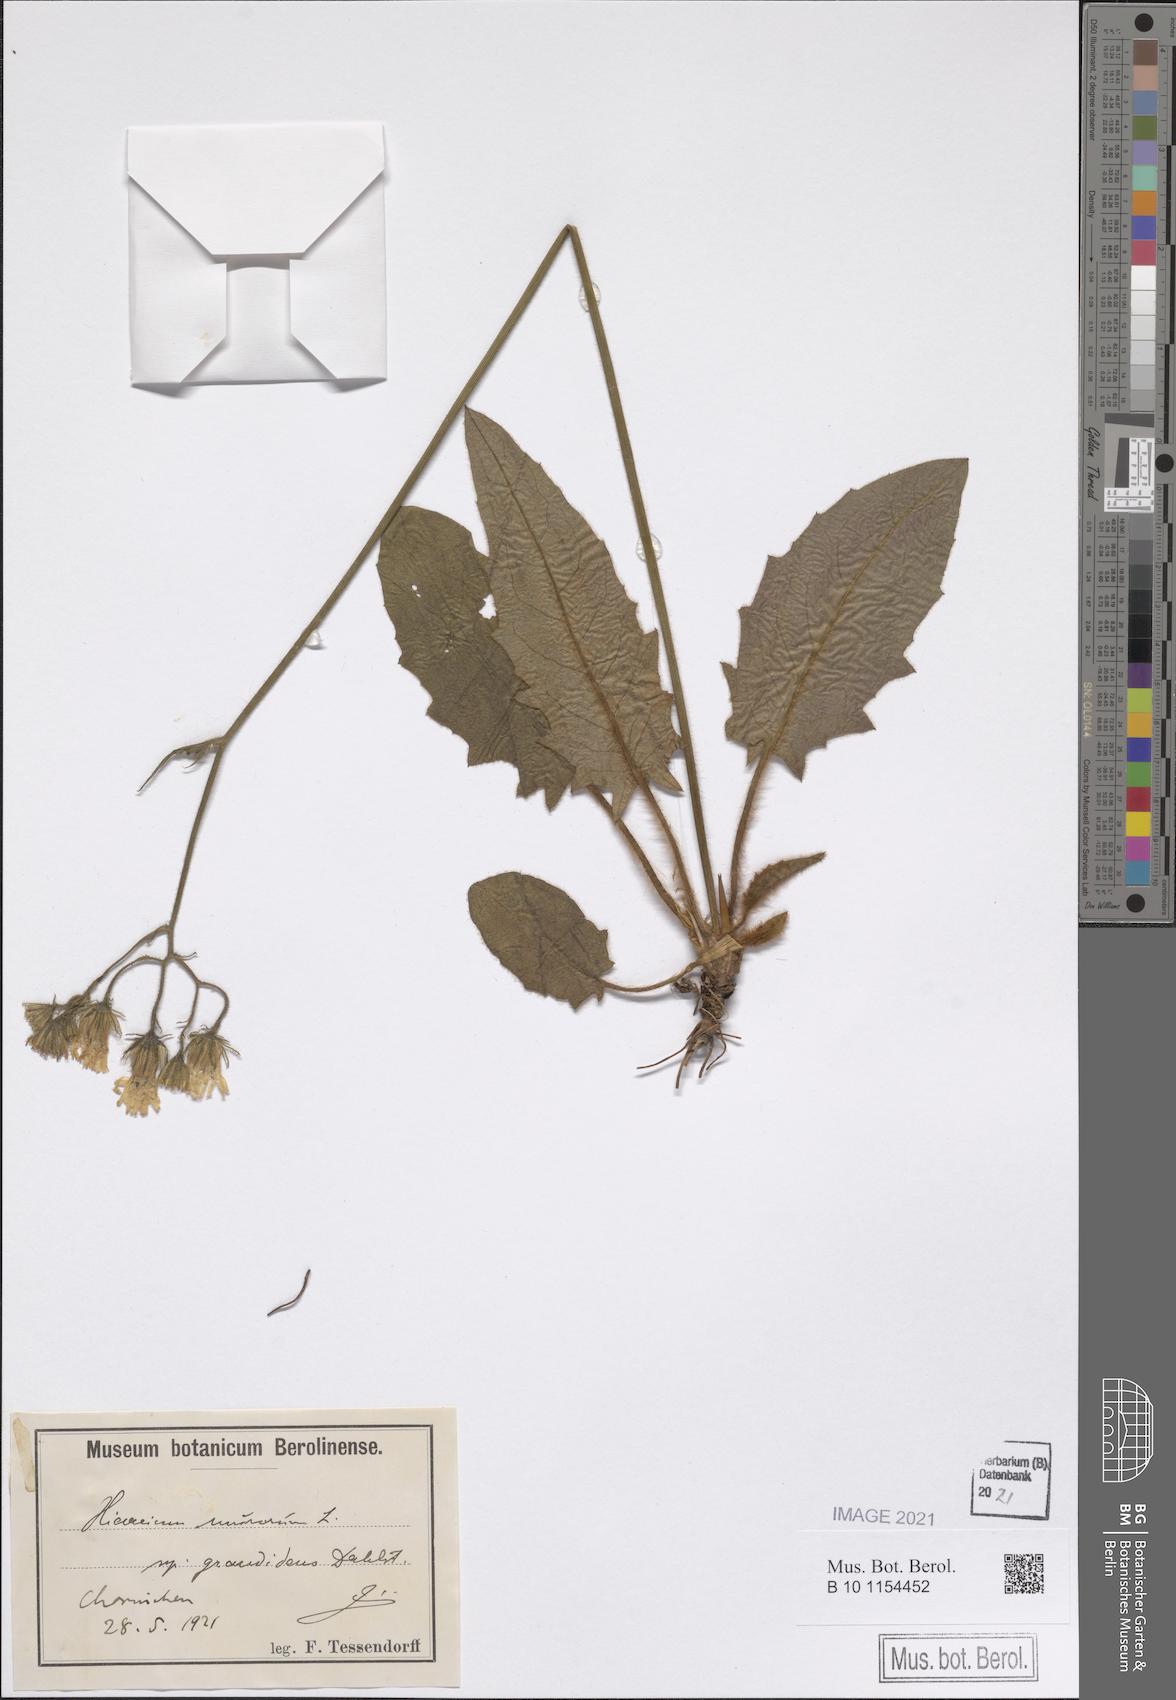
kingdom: Plantae
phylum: Tracheophyta
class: Magnoliopsida
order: Asterales
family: Asteraceae
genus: Hieracium
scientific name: Hieracium murorum
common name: Wall hawkweed
